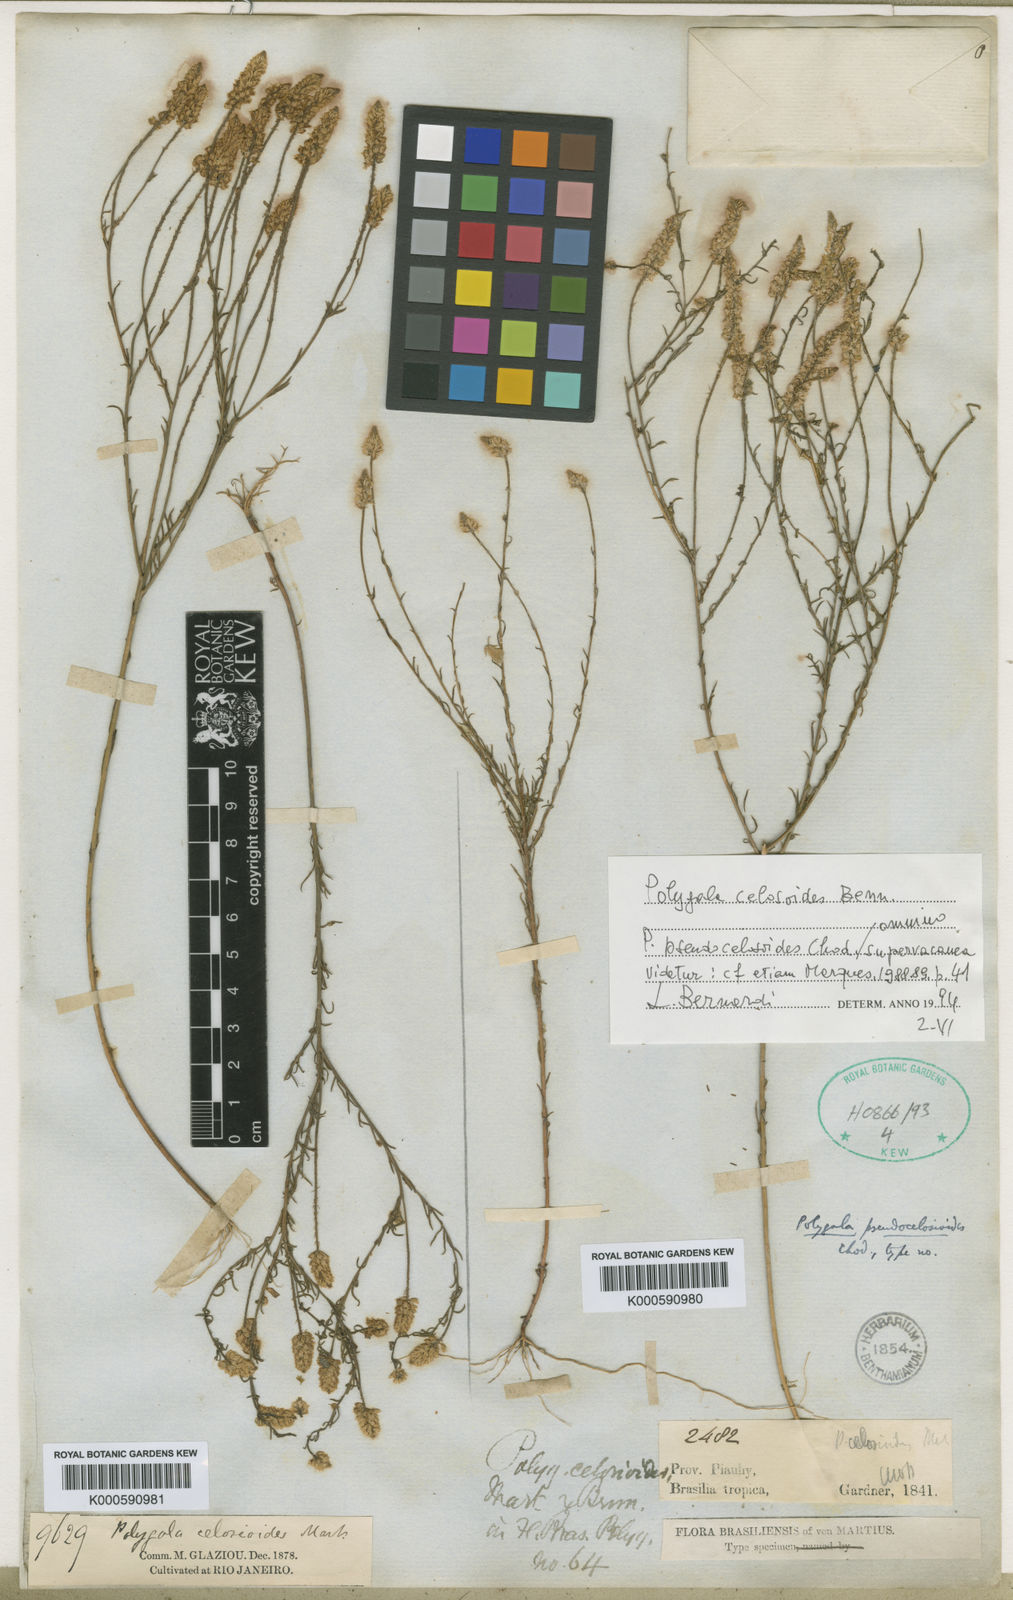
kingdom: Plantae
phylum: Tracheophyta
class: Magnoliopsida
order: Fabales
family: Polygalaceae
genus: Polygala
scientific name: Polygala celosioides
